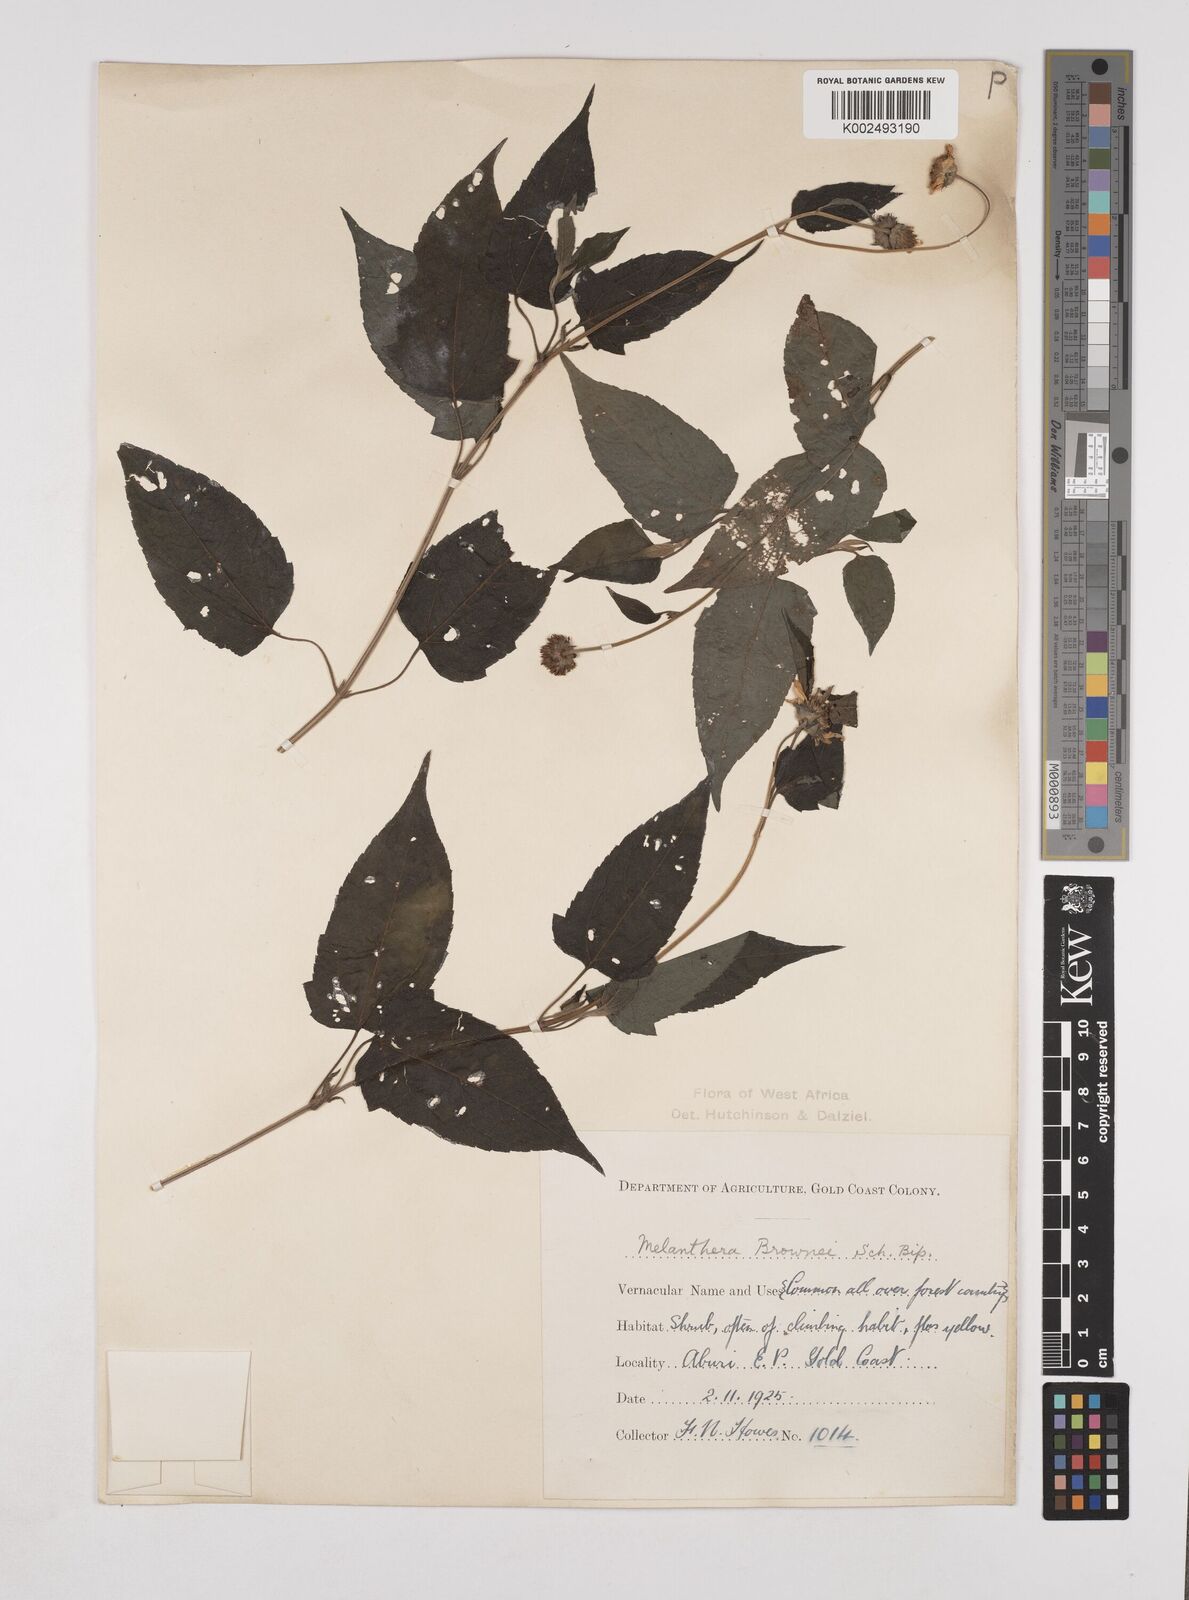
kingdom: Plantae
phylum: Tracheophyta
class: Magnoliopsida
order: Asterales
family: Asteraceae
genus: Lipotriche
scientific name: Lipotriche scandens
